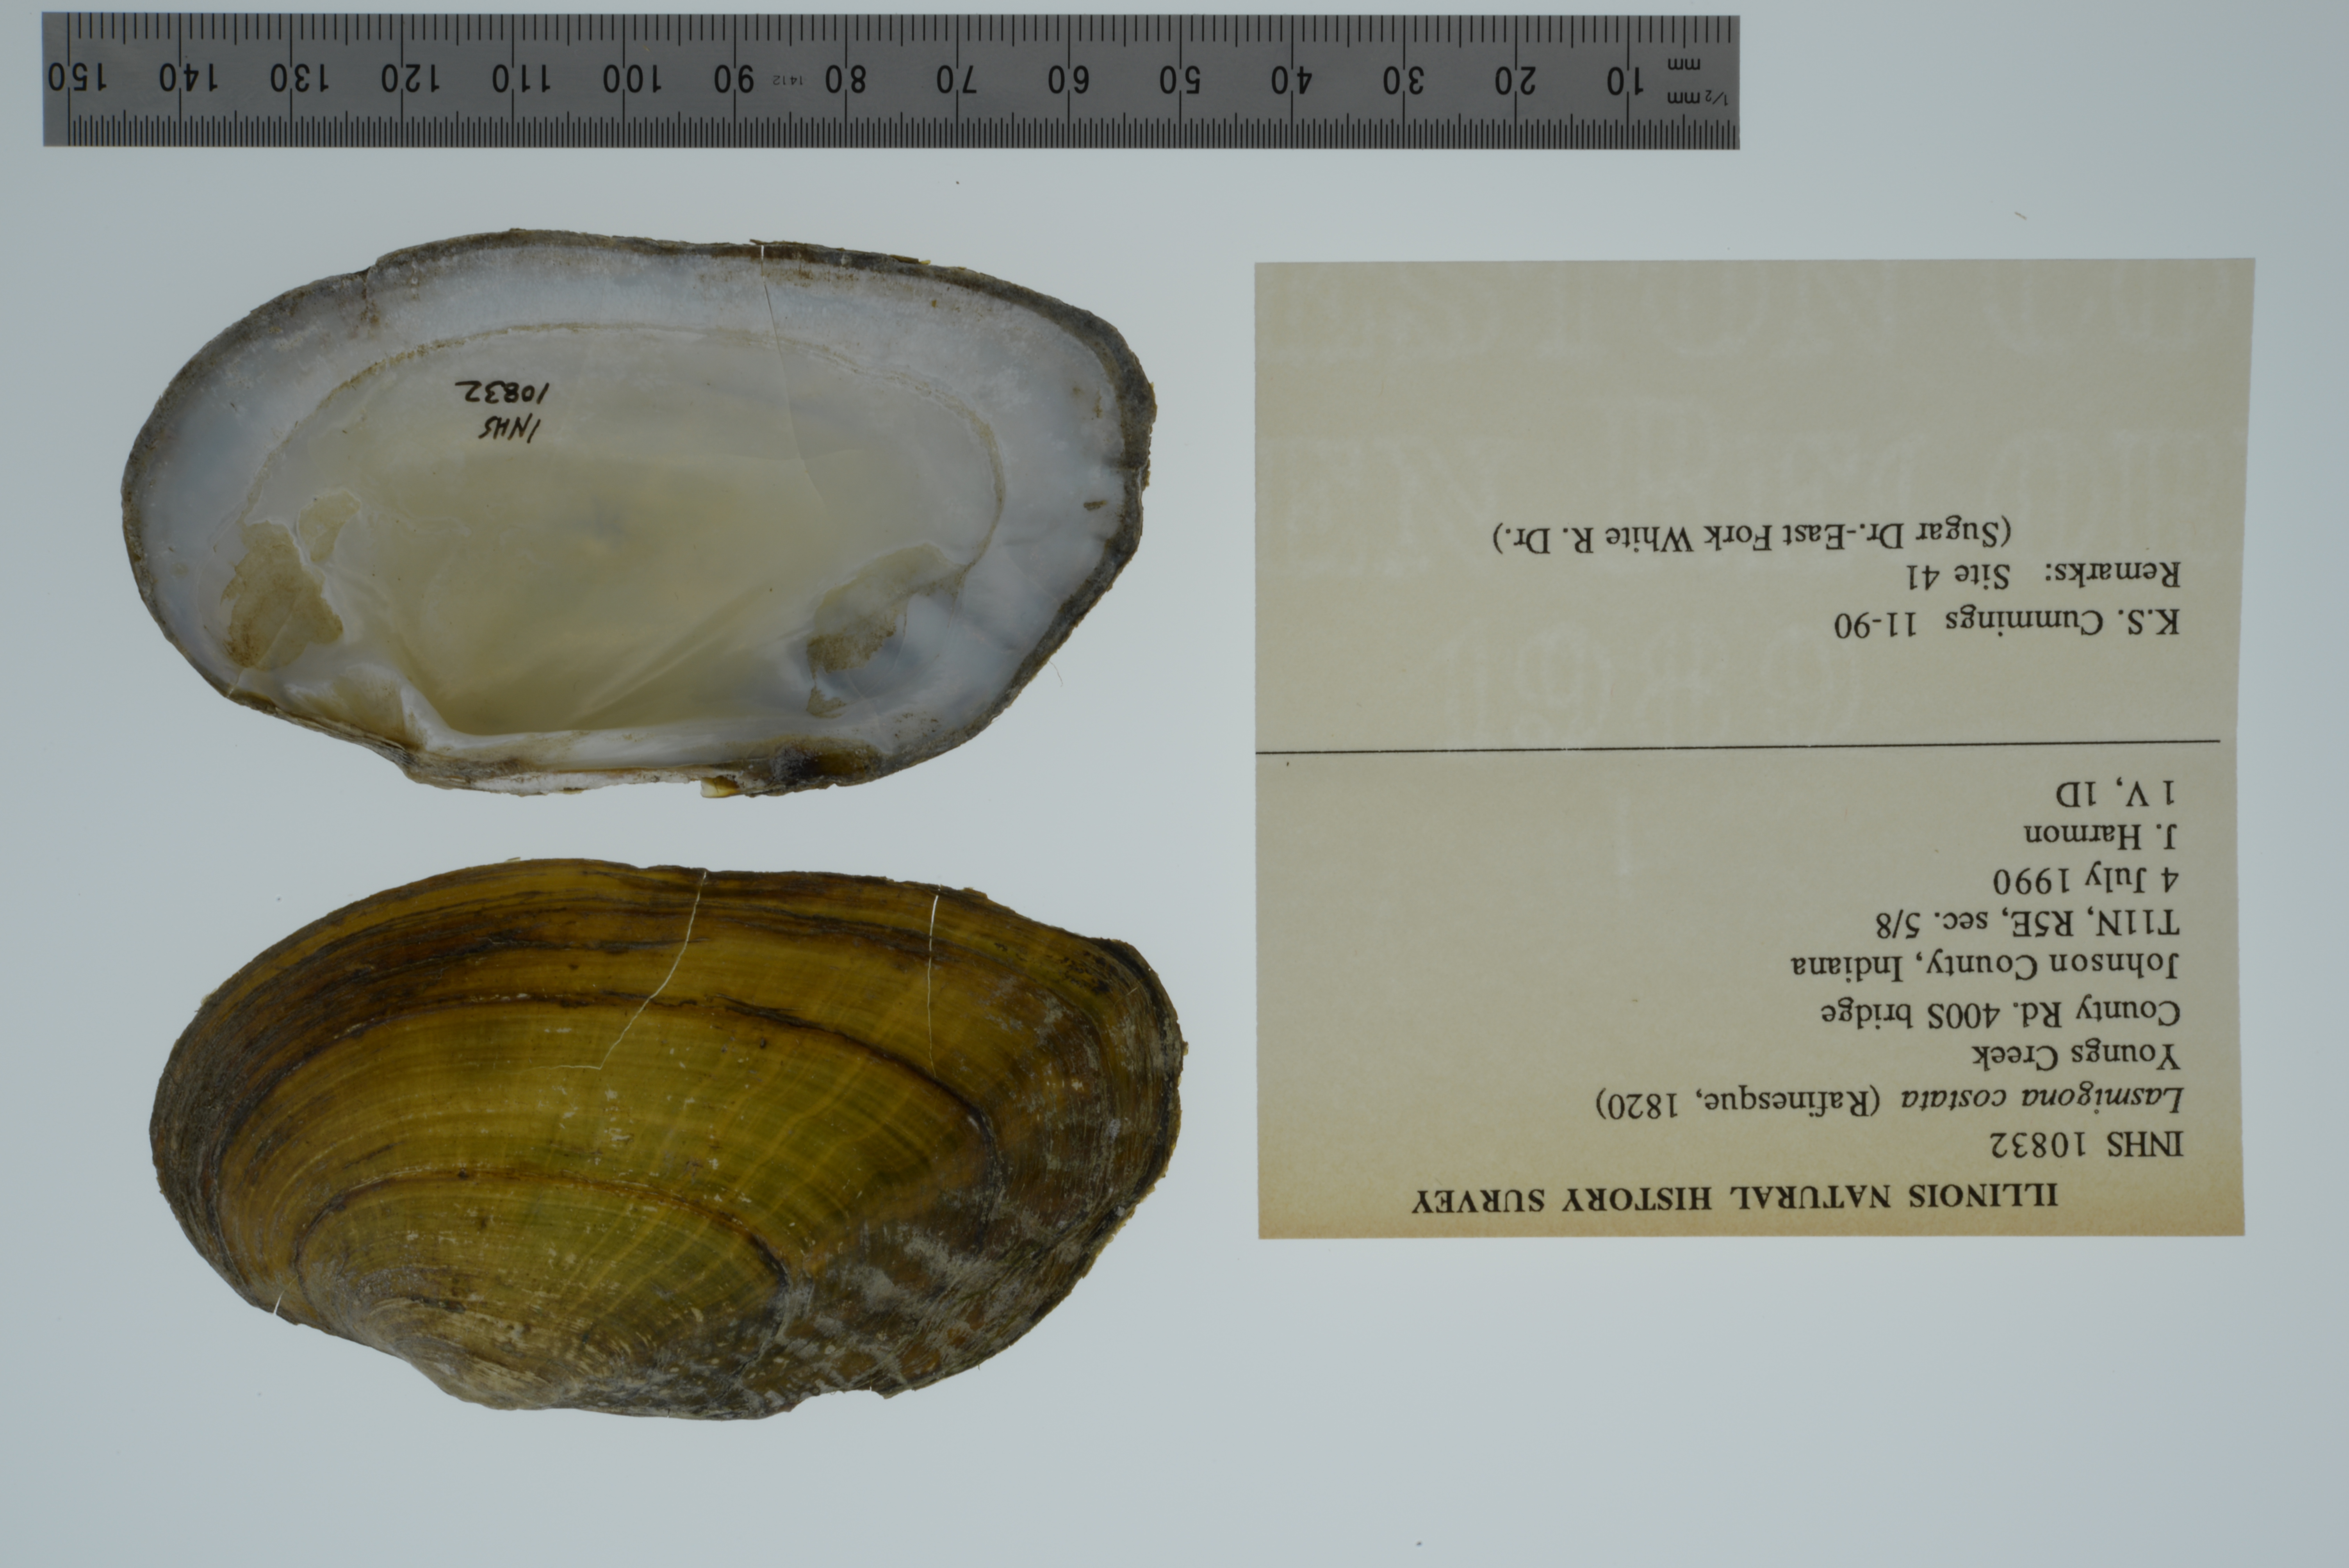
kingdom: Animalia
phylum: Mollusca
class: Bivalvia
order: Unionida
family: Unionidae
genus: Lasmigona
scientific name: Lasmigona costata
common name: Flutedshell
